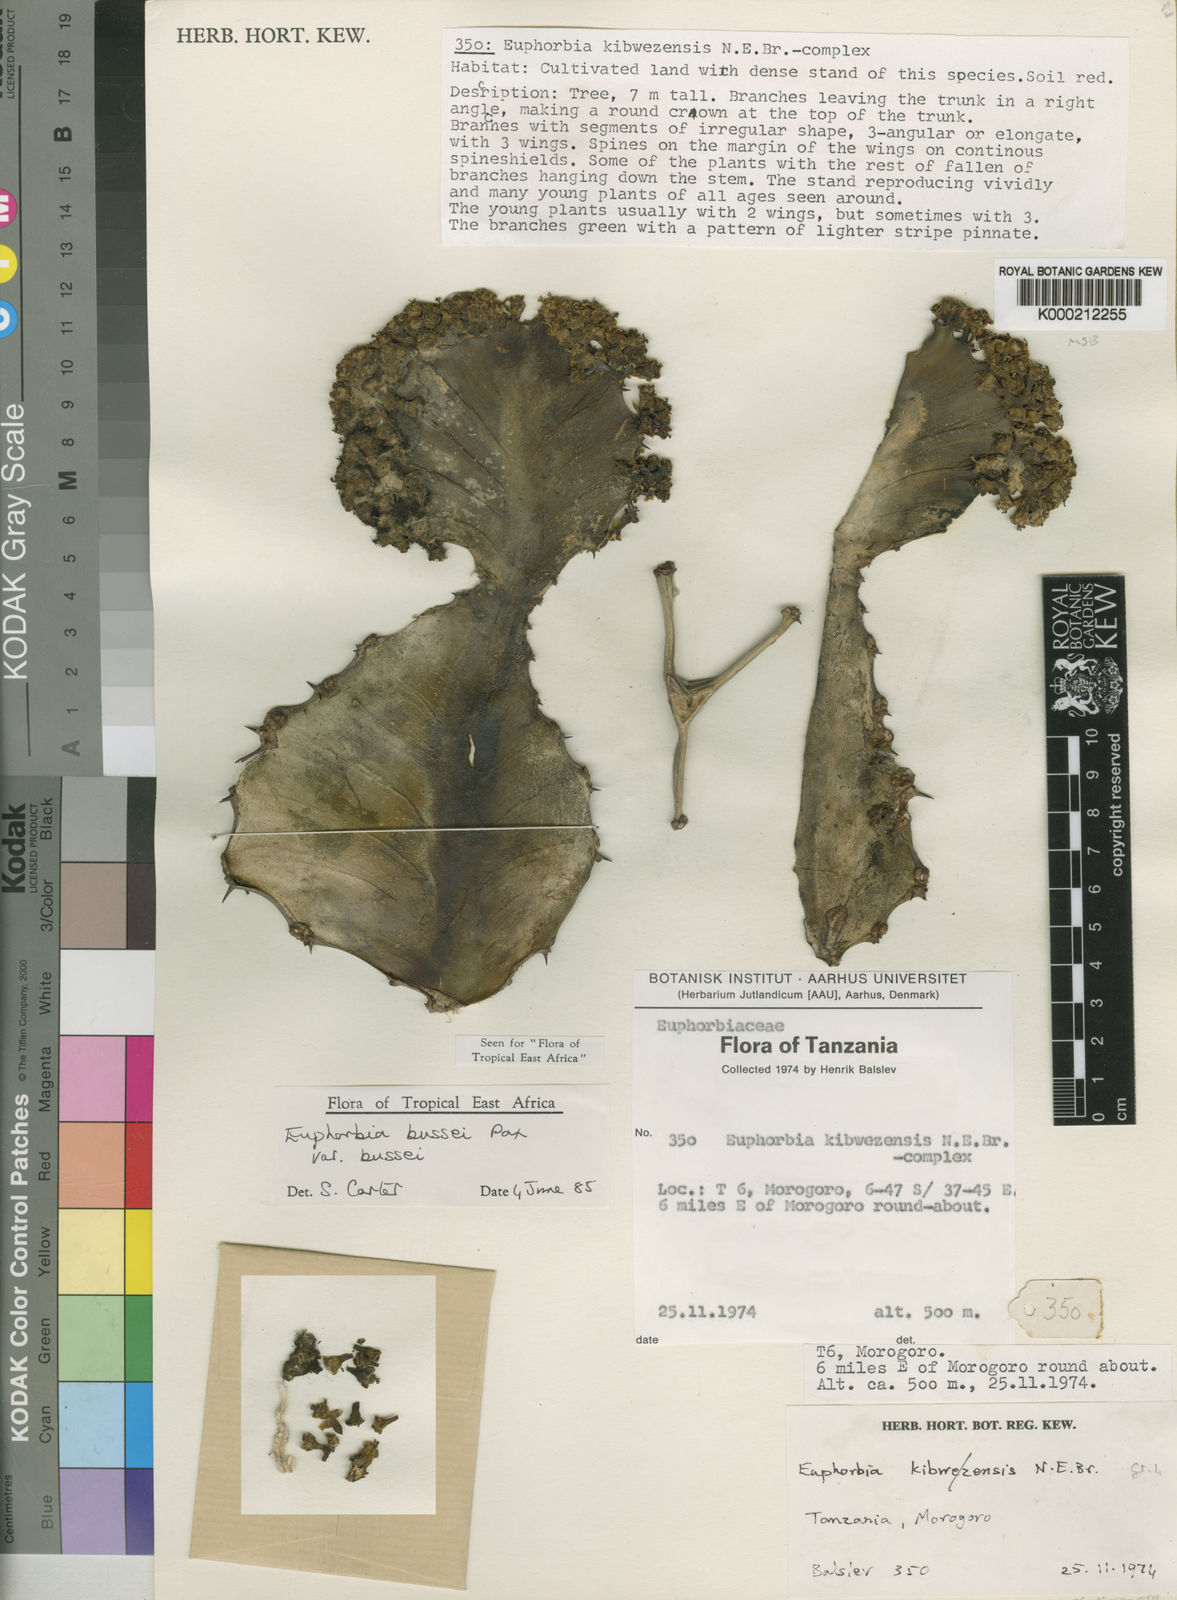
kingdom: Plantae
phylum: Tracheophyta
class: Magnoliopsida
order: Malpighiales
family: Euphorbiaceae
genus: Euphorbia
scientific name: Euphorbia bussei
